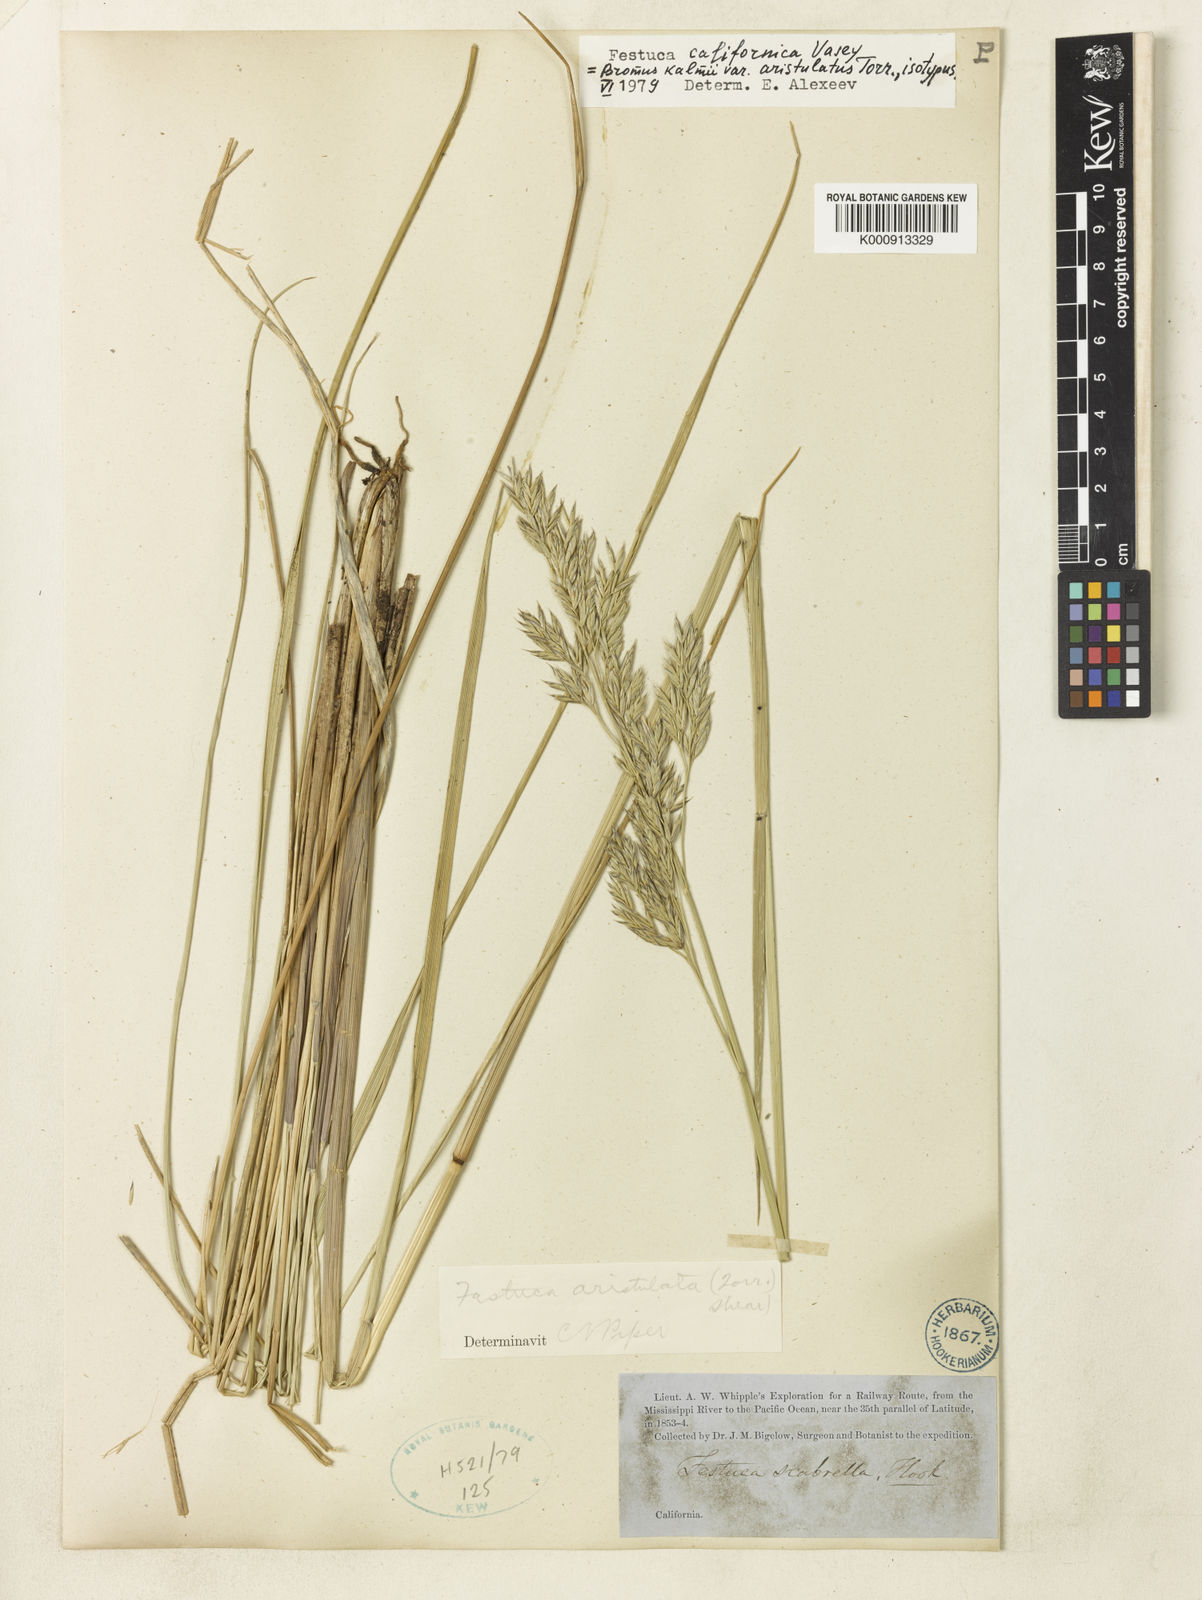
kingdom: Plantae
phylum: Tracheophyta
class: Liliopsida
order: Poales
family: Poaceae
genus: Festuca
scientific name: Festuca californica
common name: California fescue
